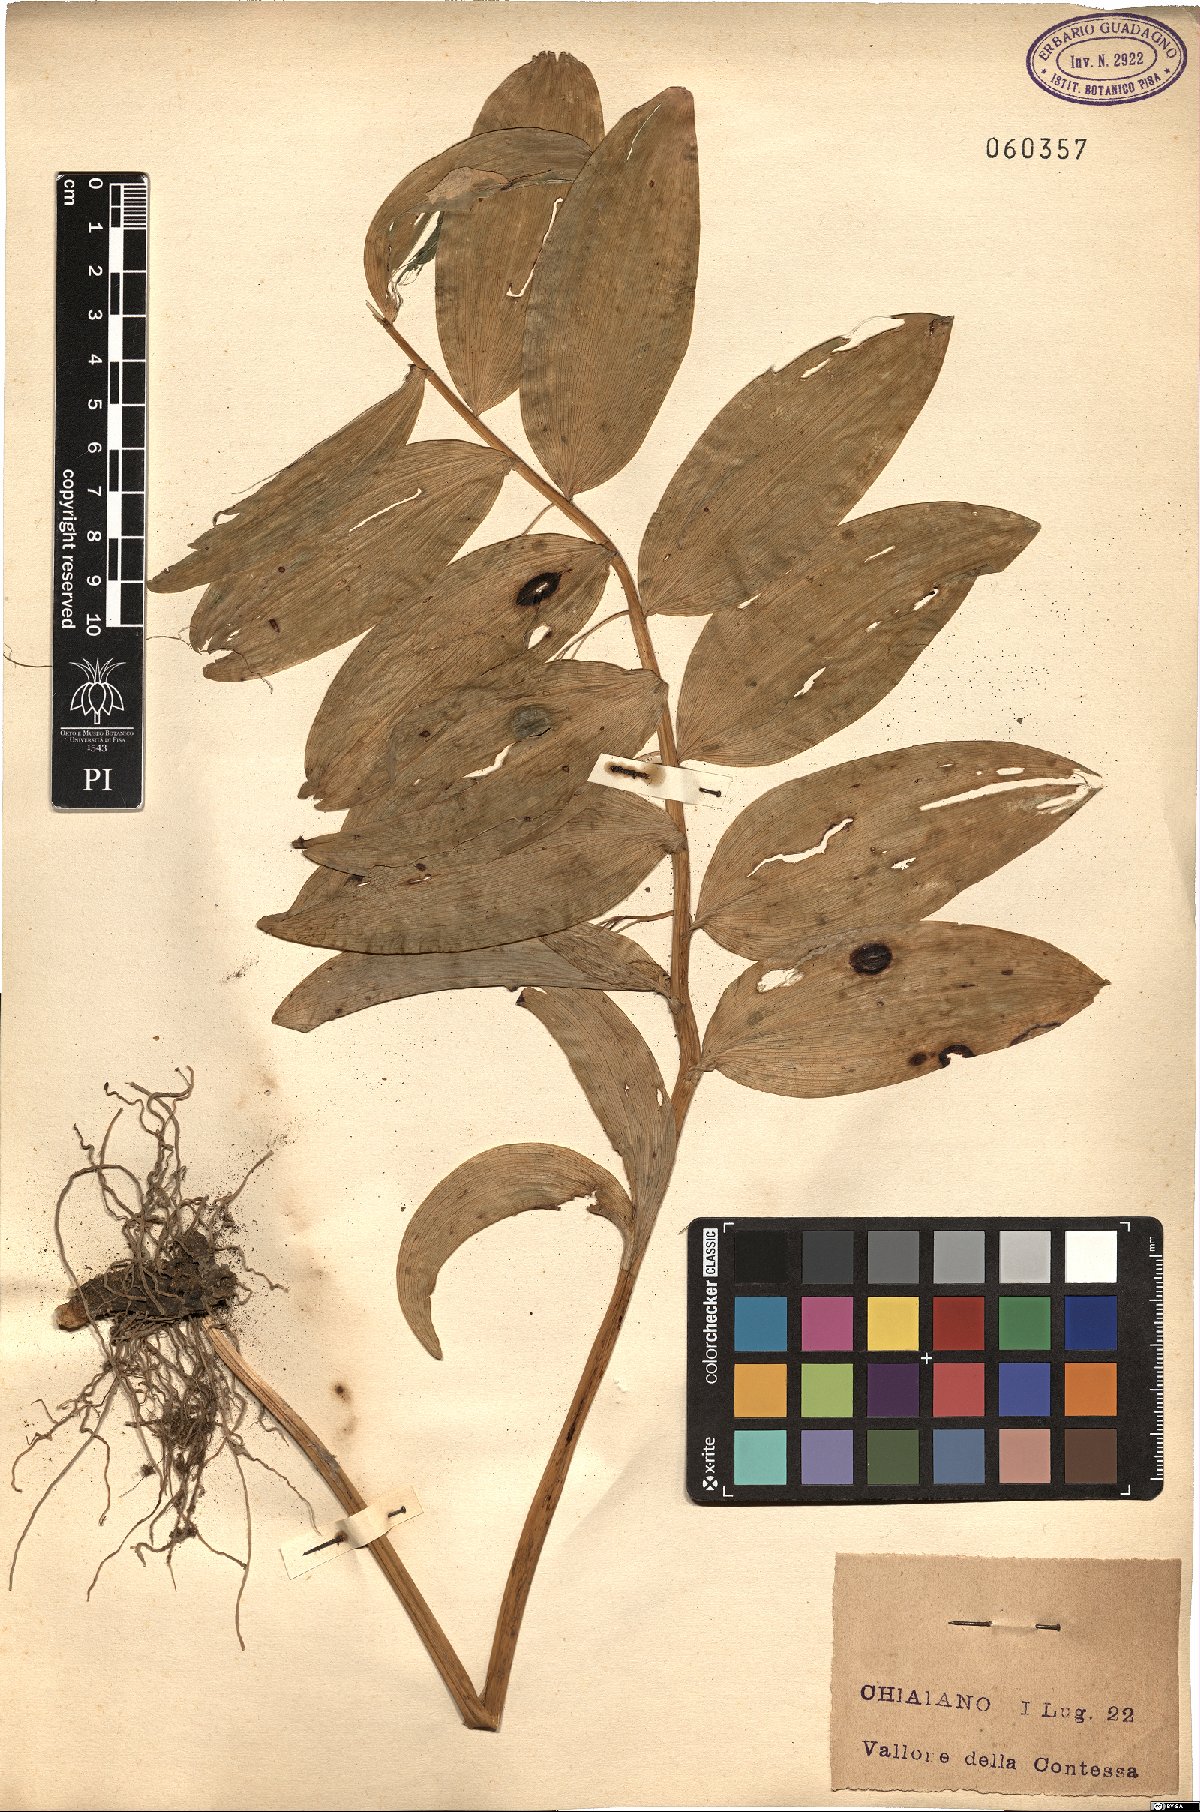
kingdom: Plantae
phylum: Tracheophyta
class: Liliopsida
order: Asparagales
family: Asparagaceae
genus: Polygonatum
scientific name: Polygonatum
